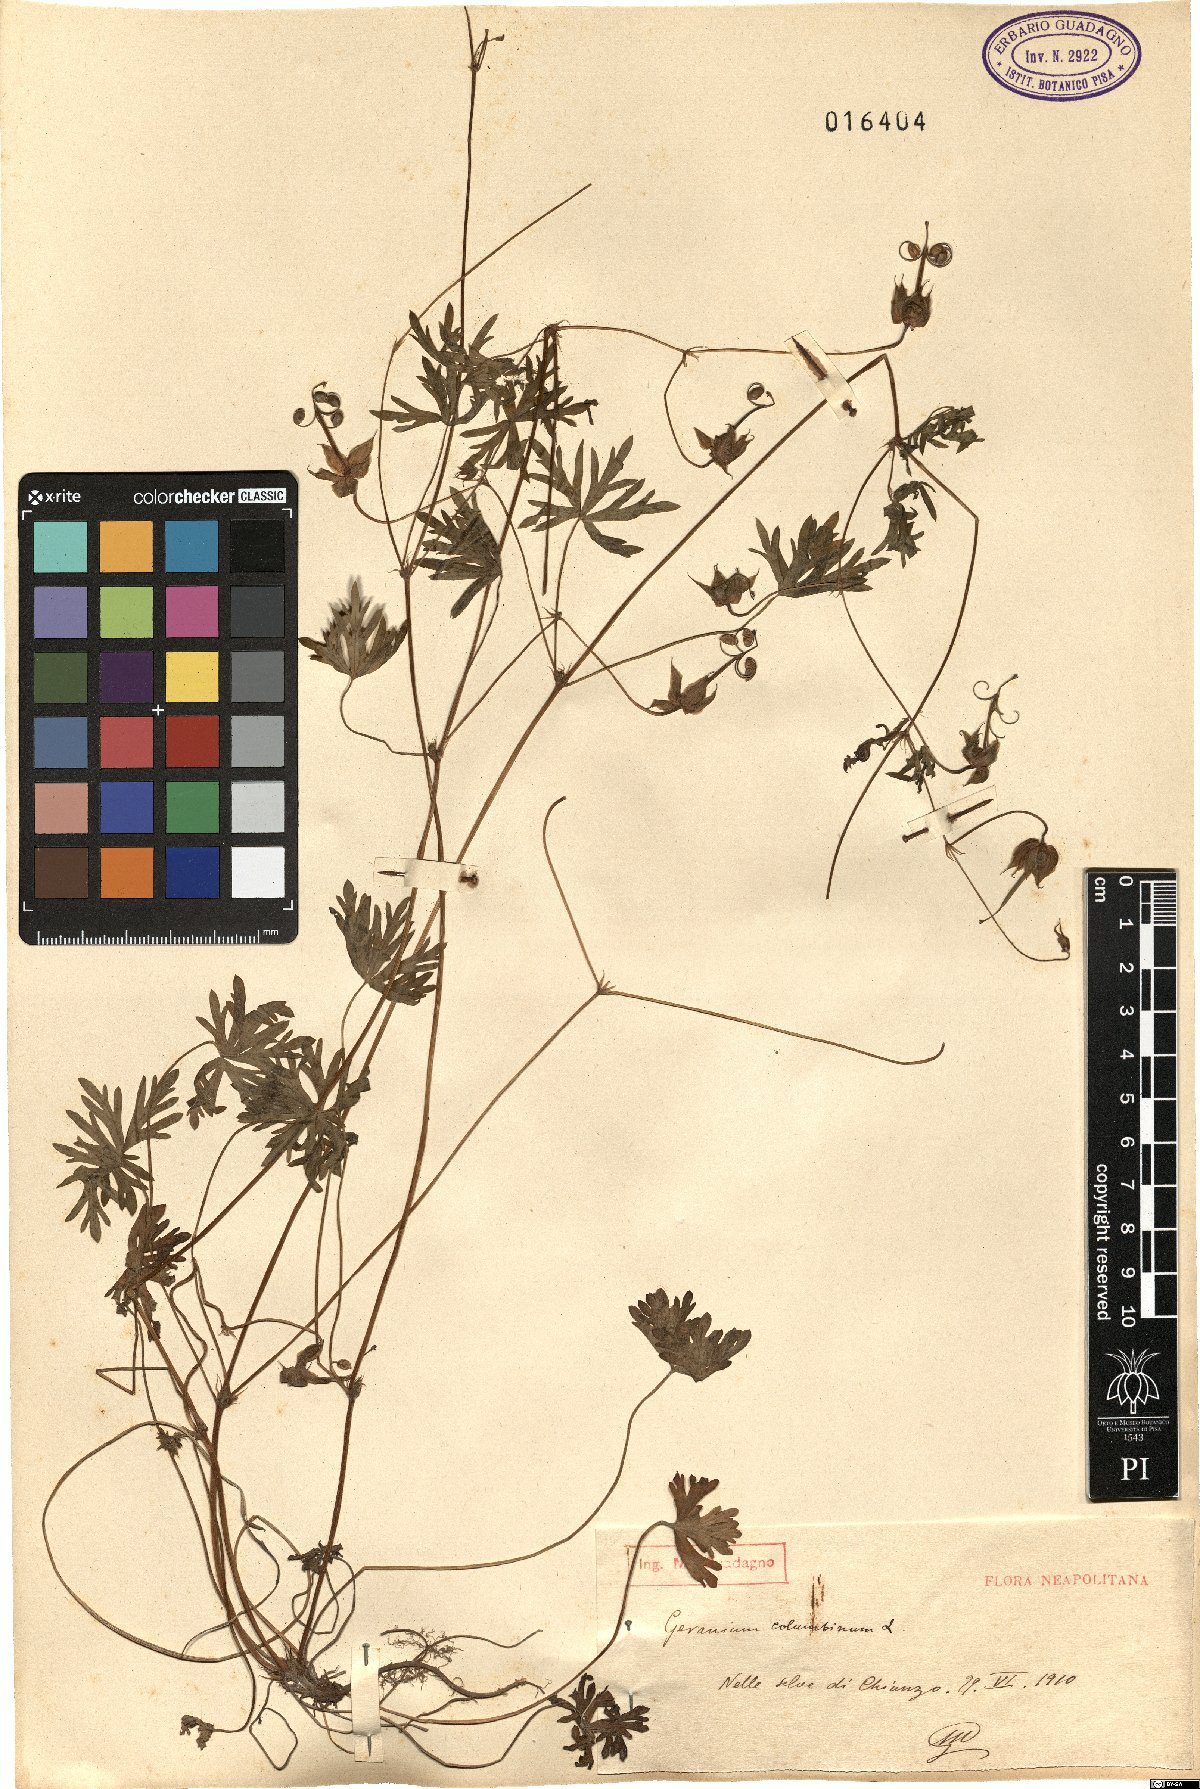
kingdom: Plantae
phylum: Tracheophyta
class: Magnoliopsida
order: Geraniales
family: Geraniaceae
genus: Geranium
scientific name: Geranium columbinum
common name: Long-stalked crane's-bill
